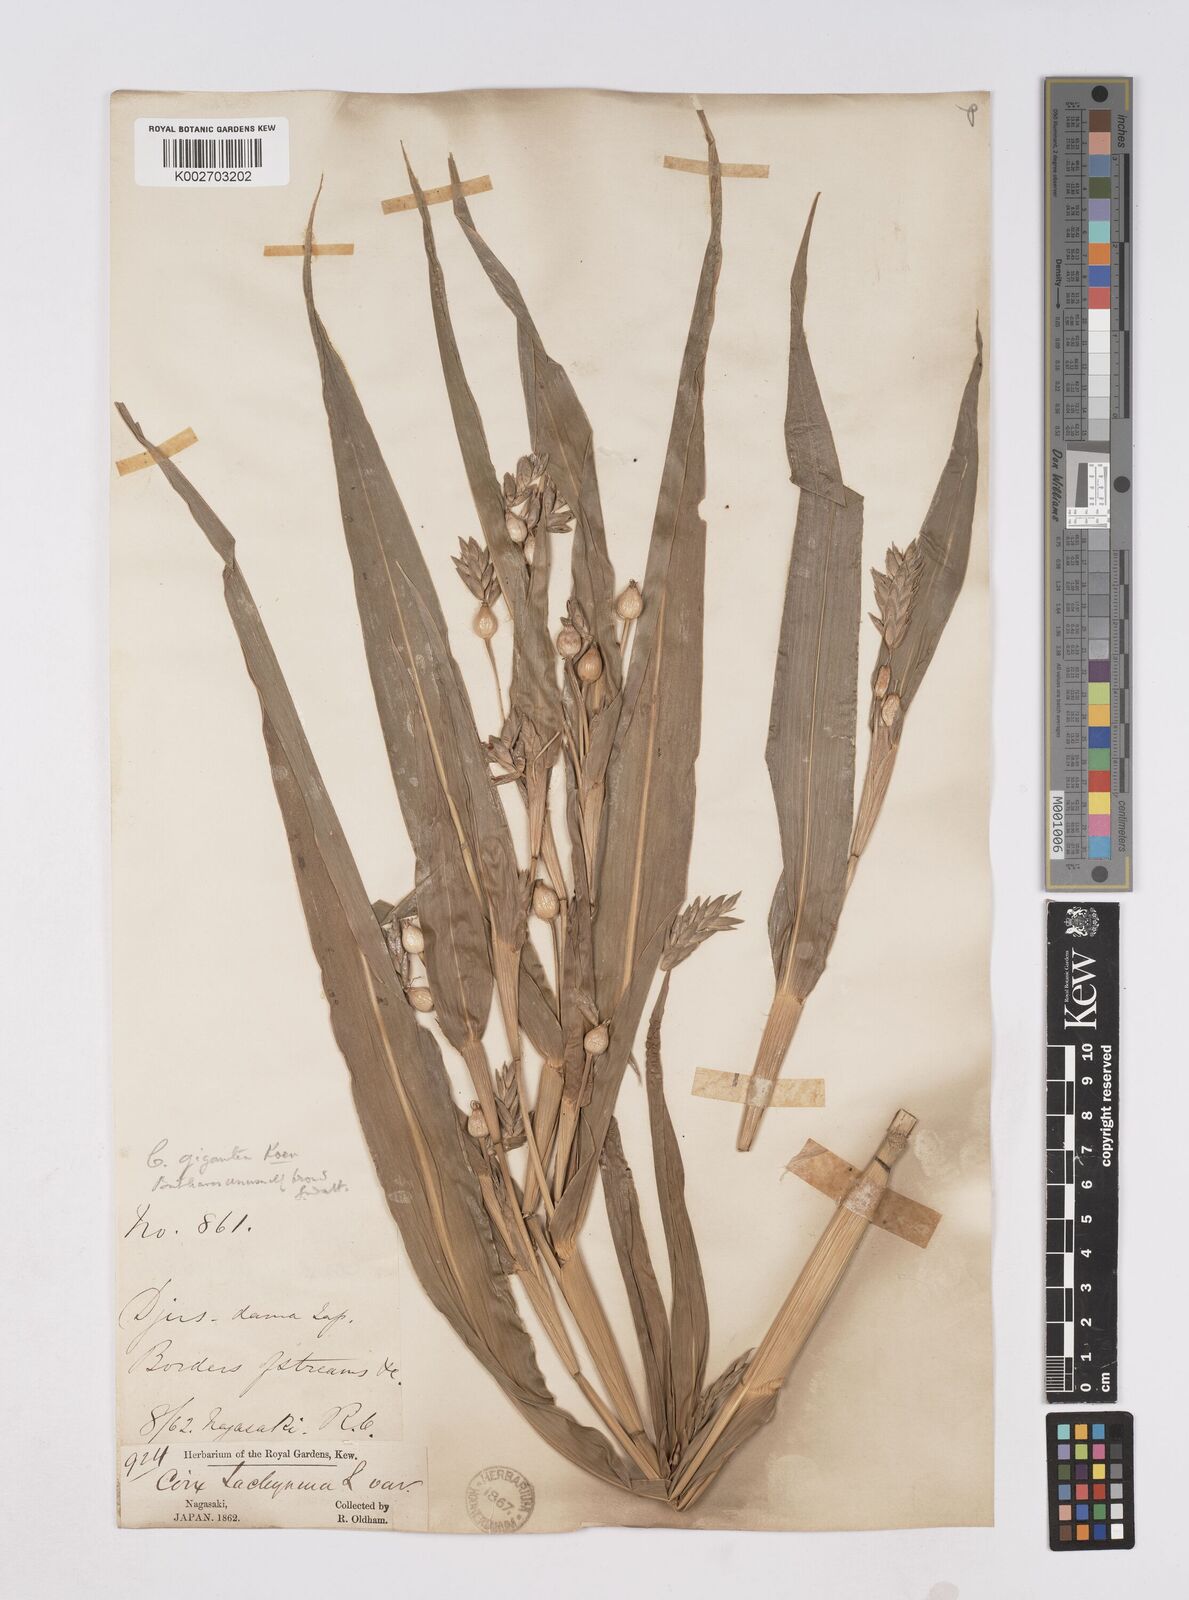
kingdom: Plantae
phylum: Tracheophyta
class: Liliopsida
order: Poales
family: Poaceae
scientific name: Poaceae
